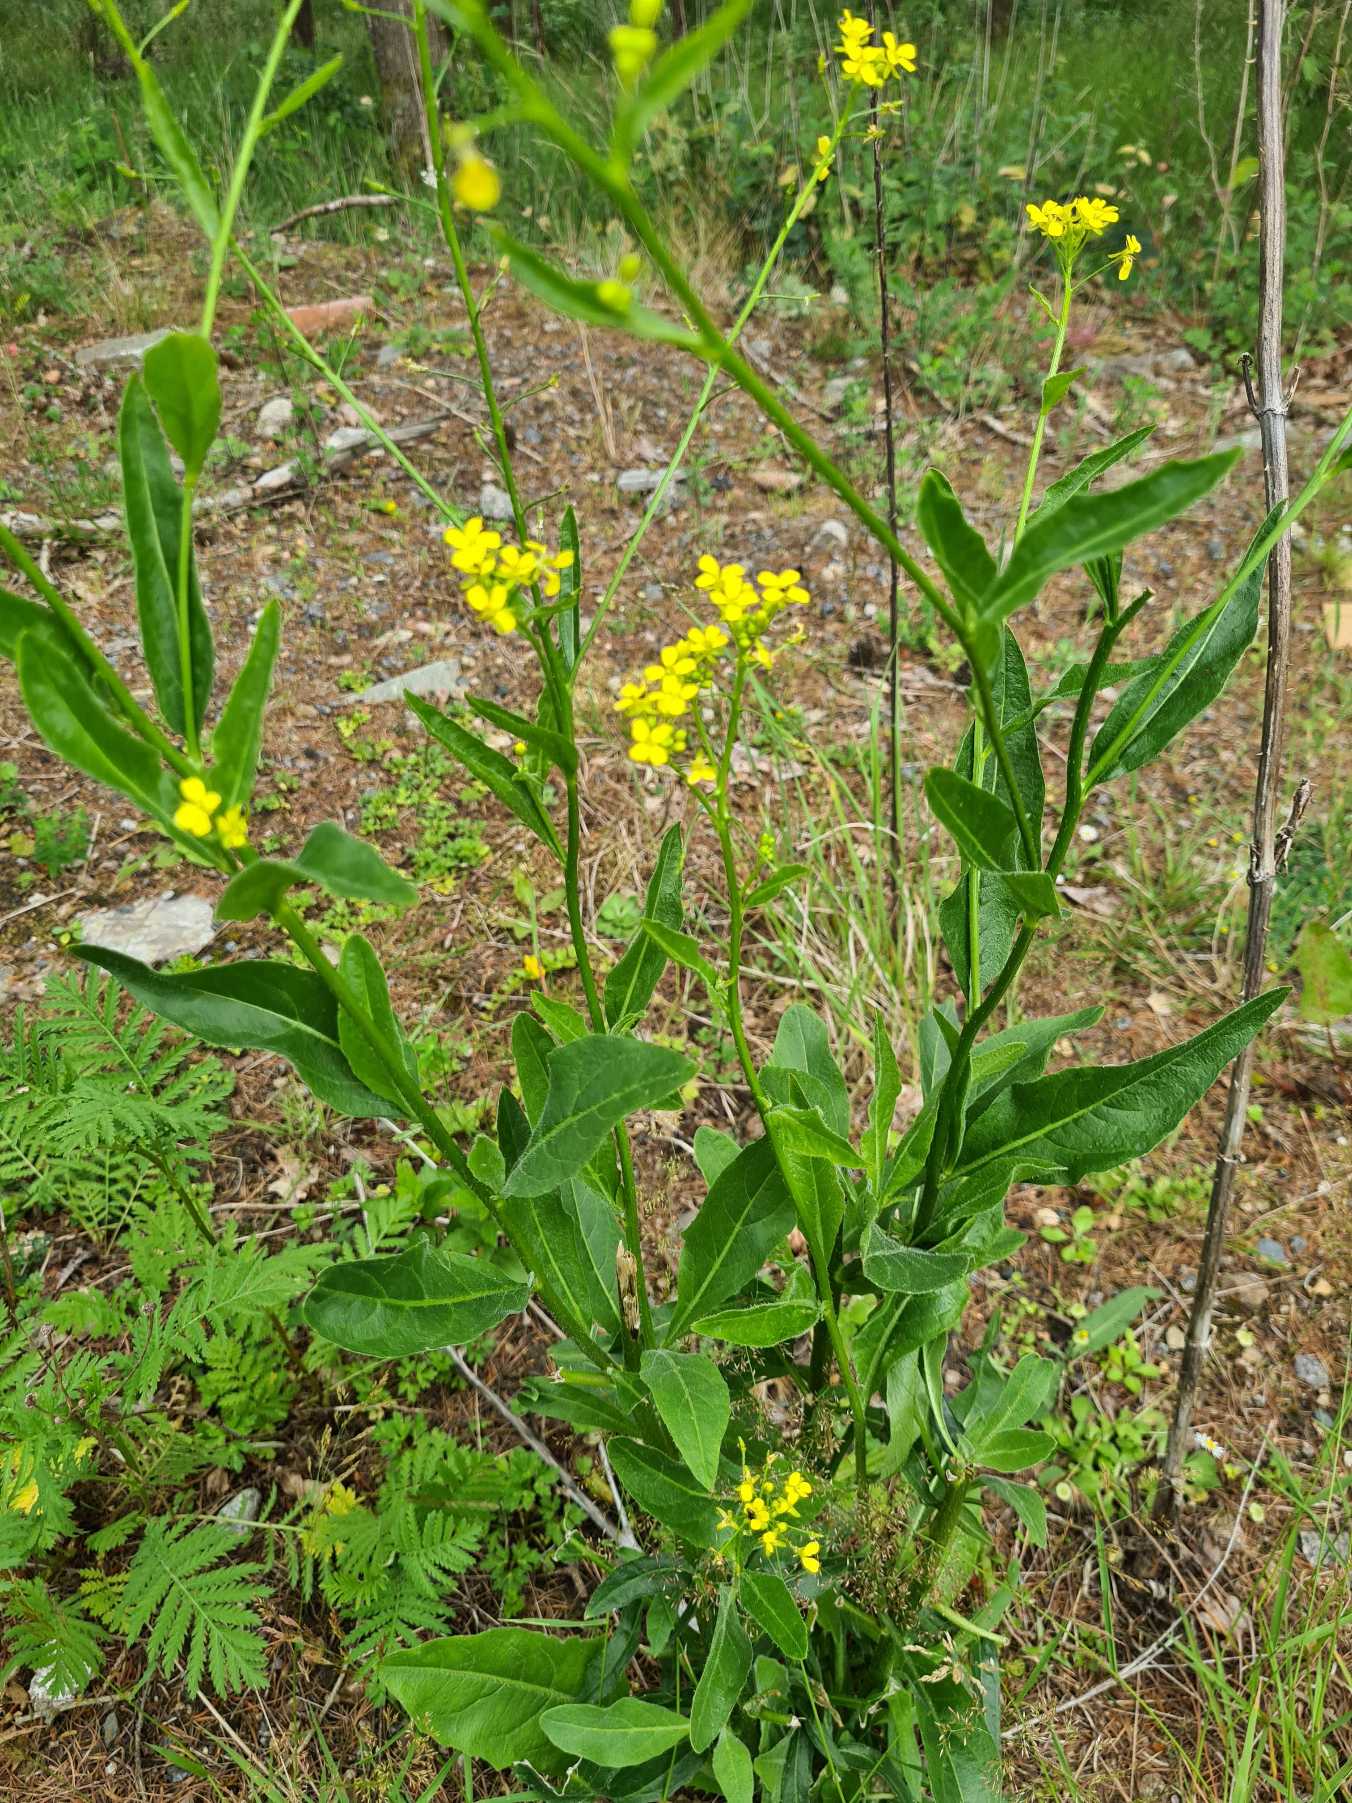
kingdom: Plantae
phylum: Tracheophyta
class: Magnoliopsida
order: Brassicales
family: Brassicaceae
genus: Bunias
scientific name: Bunias orientalis
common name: Takkeklap
